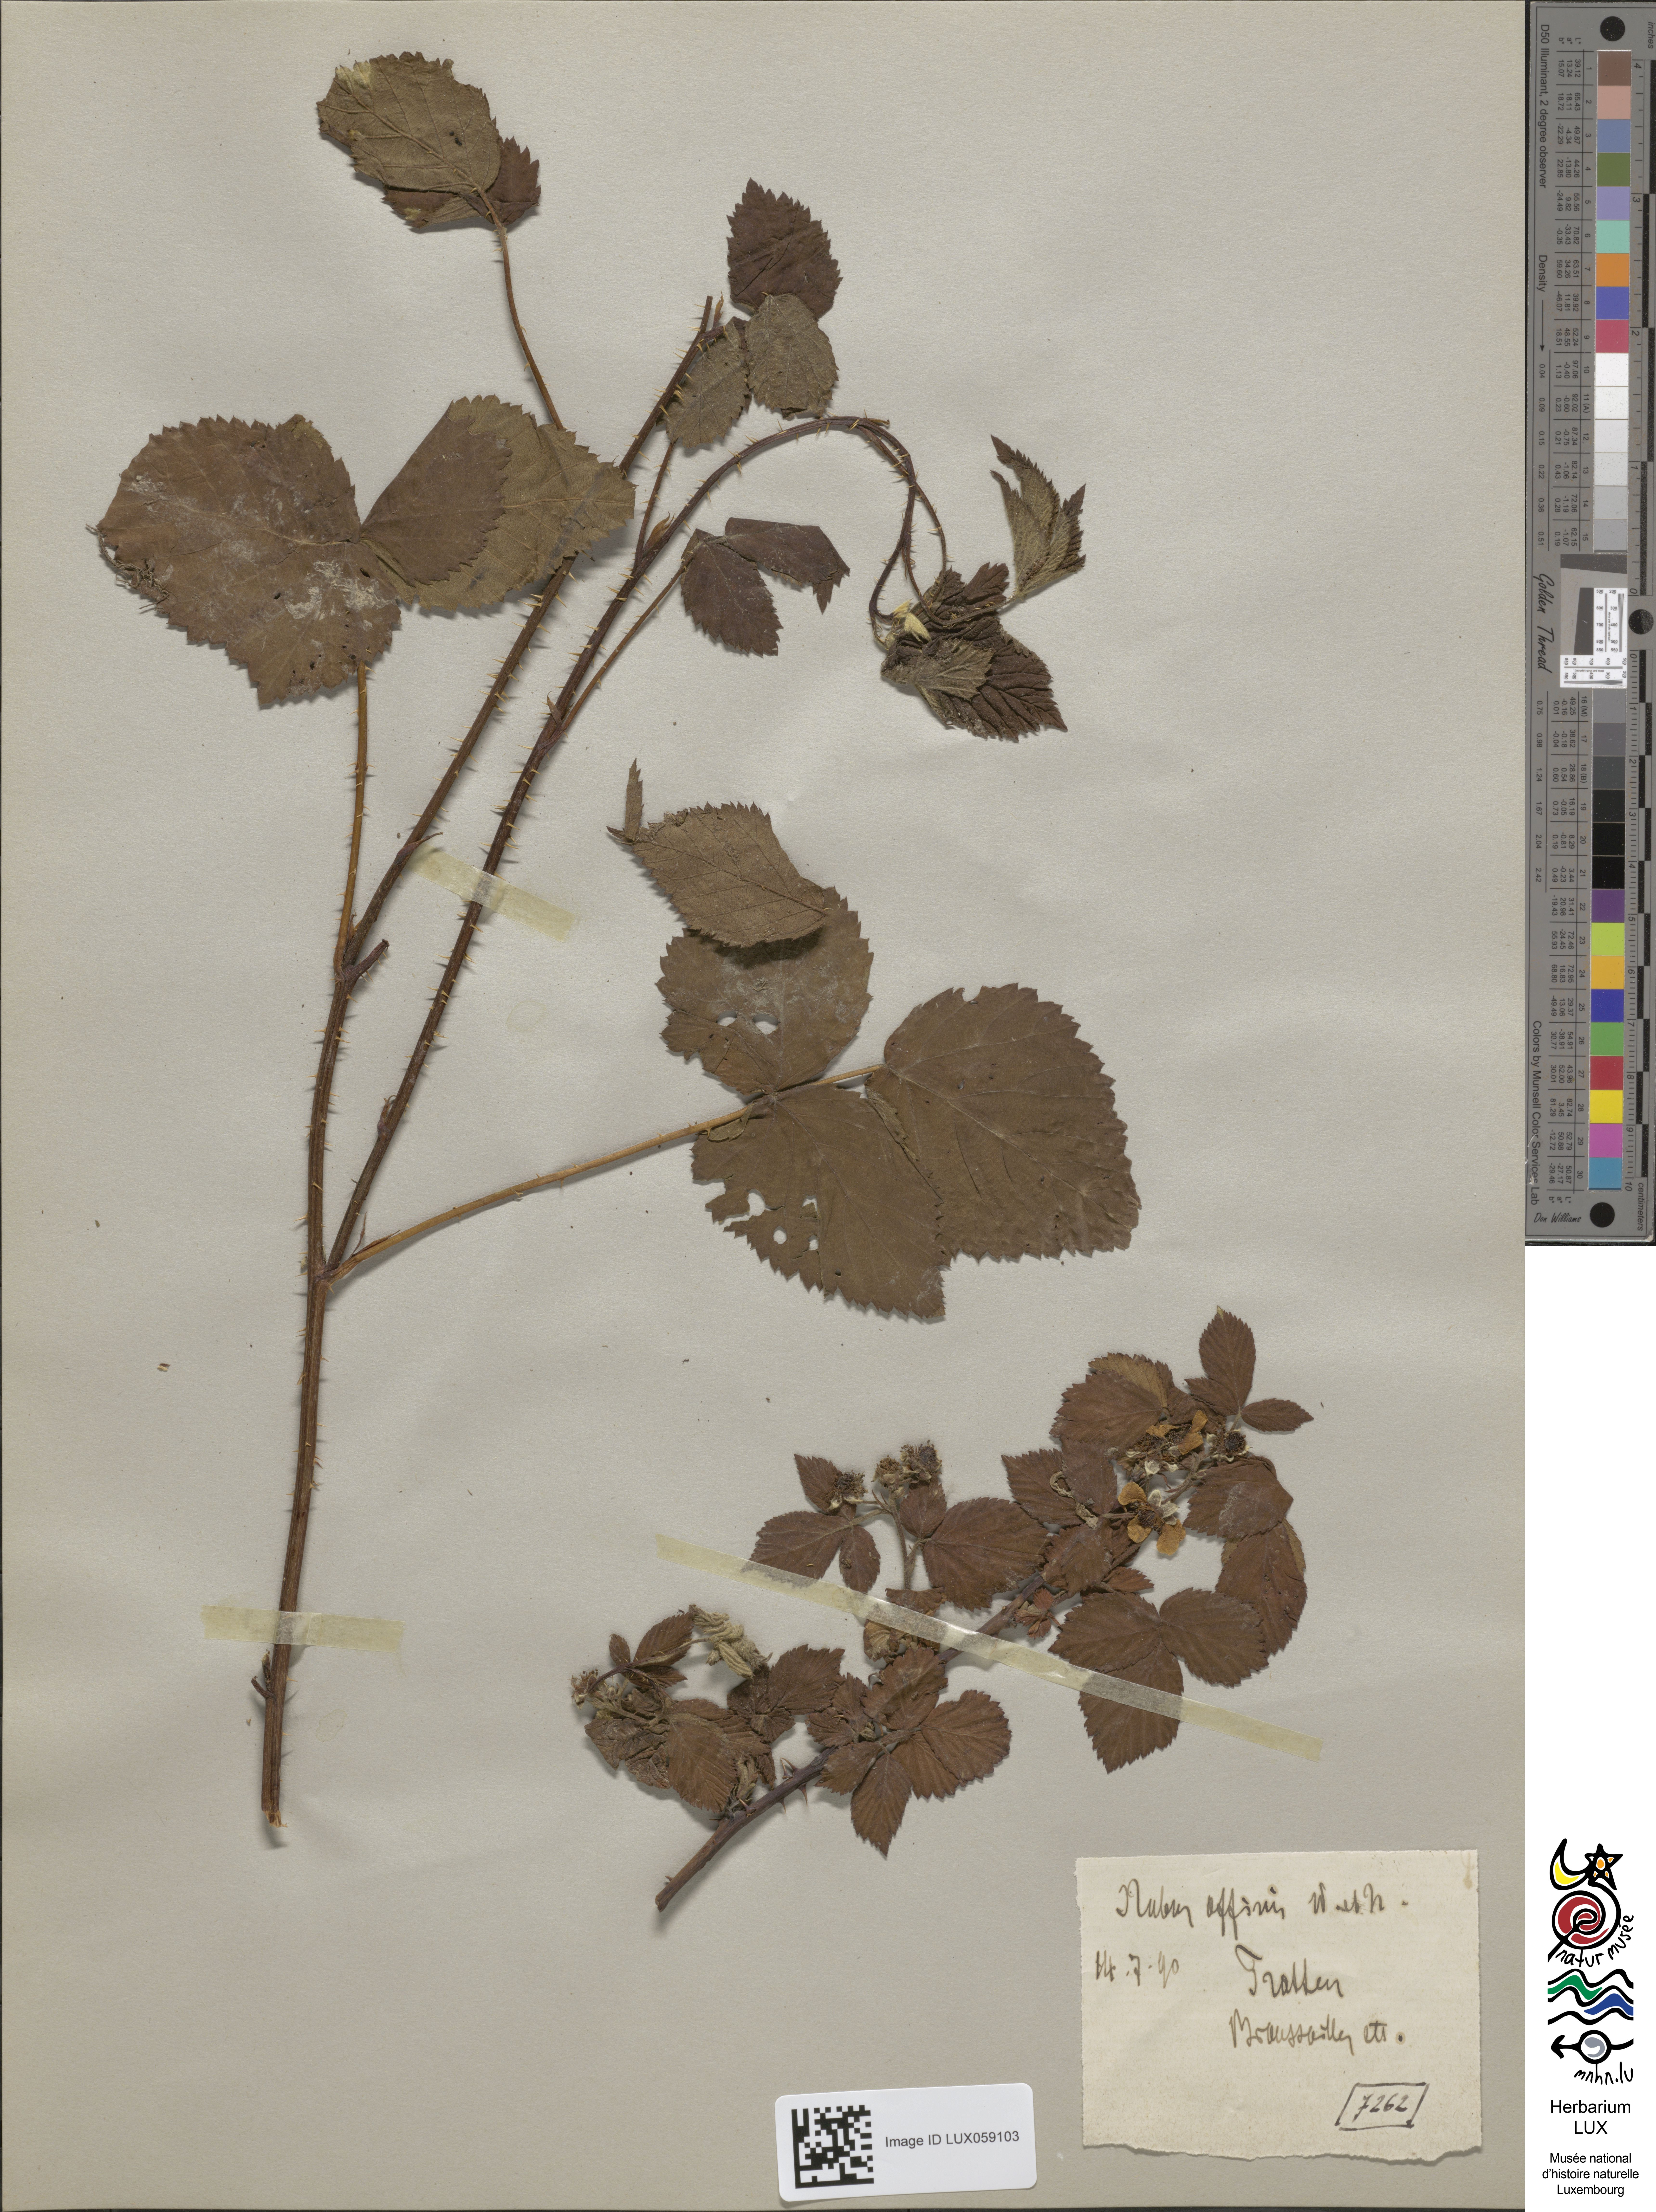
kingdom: Plantae
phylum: Tracheophyta
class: Magnoliopsida
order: Rosales
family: Rosaceae
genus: Rubus
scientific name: Rubus affinis
